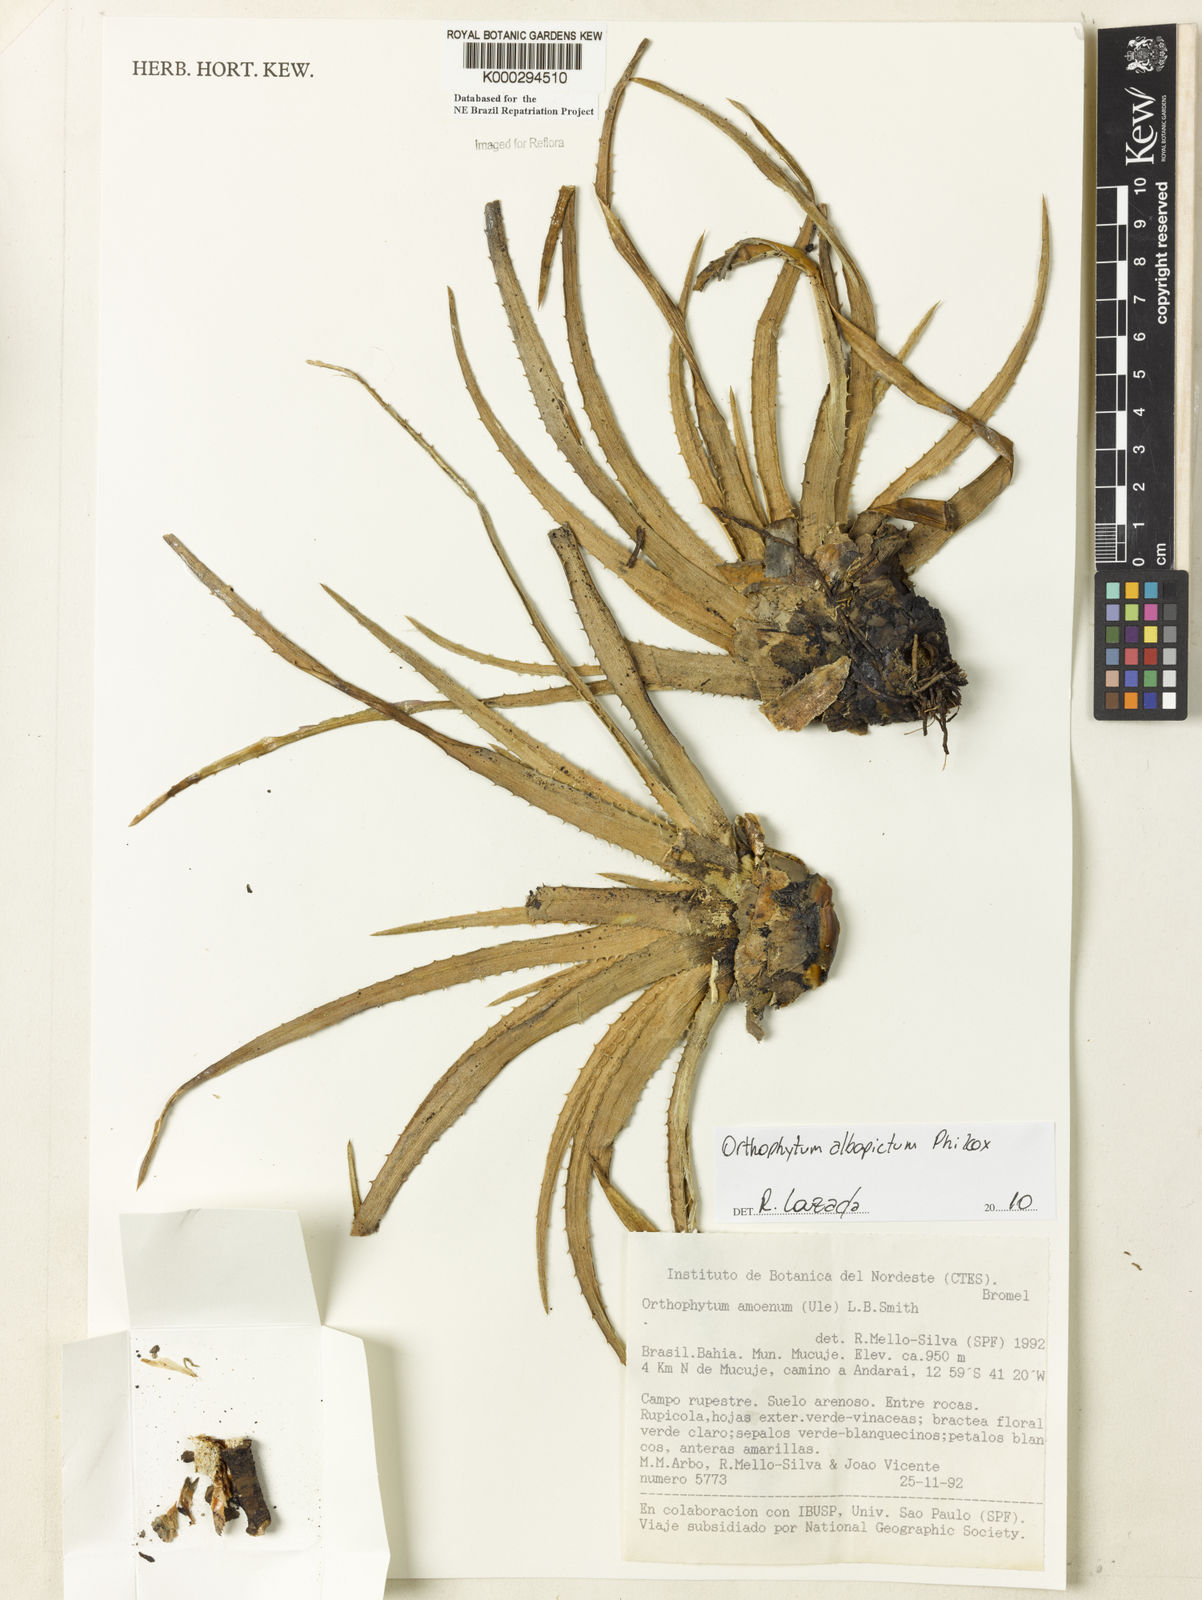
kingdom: Plantae
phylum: Tracheophyta
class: Liliopsida
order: Poales
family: Bromeliaceae
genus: Sincoraea
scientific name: Sincoraea amoena
